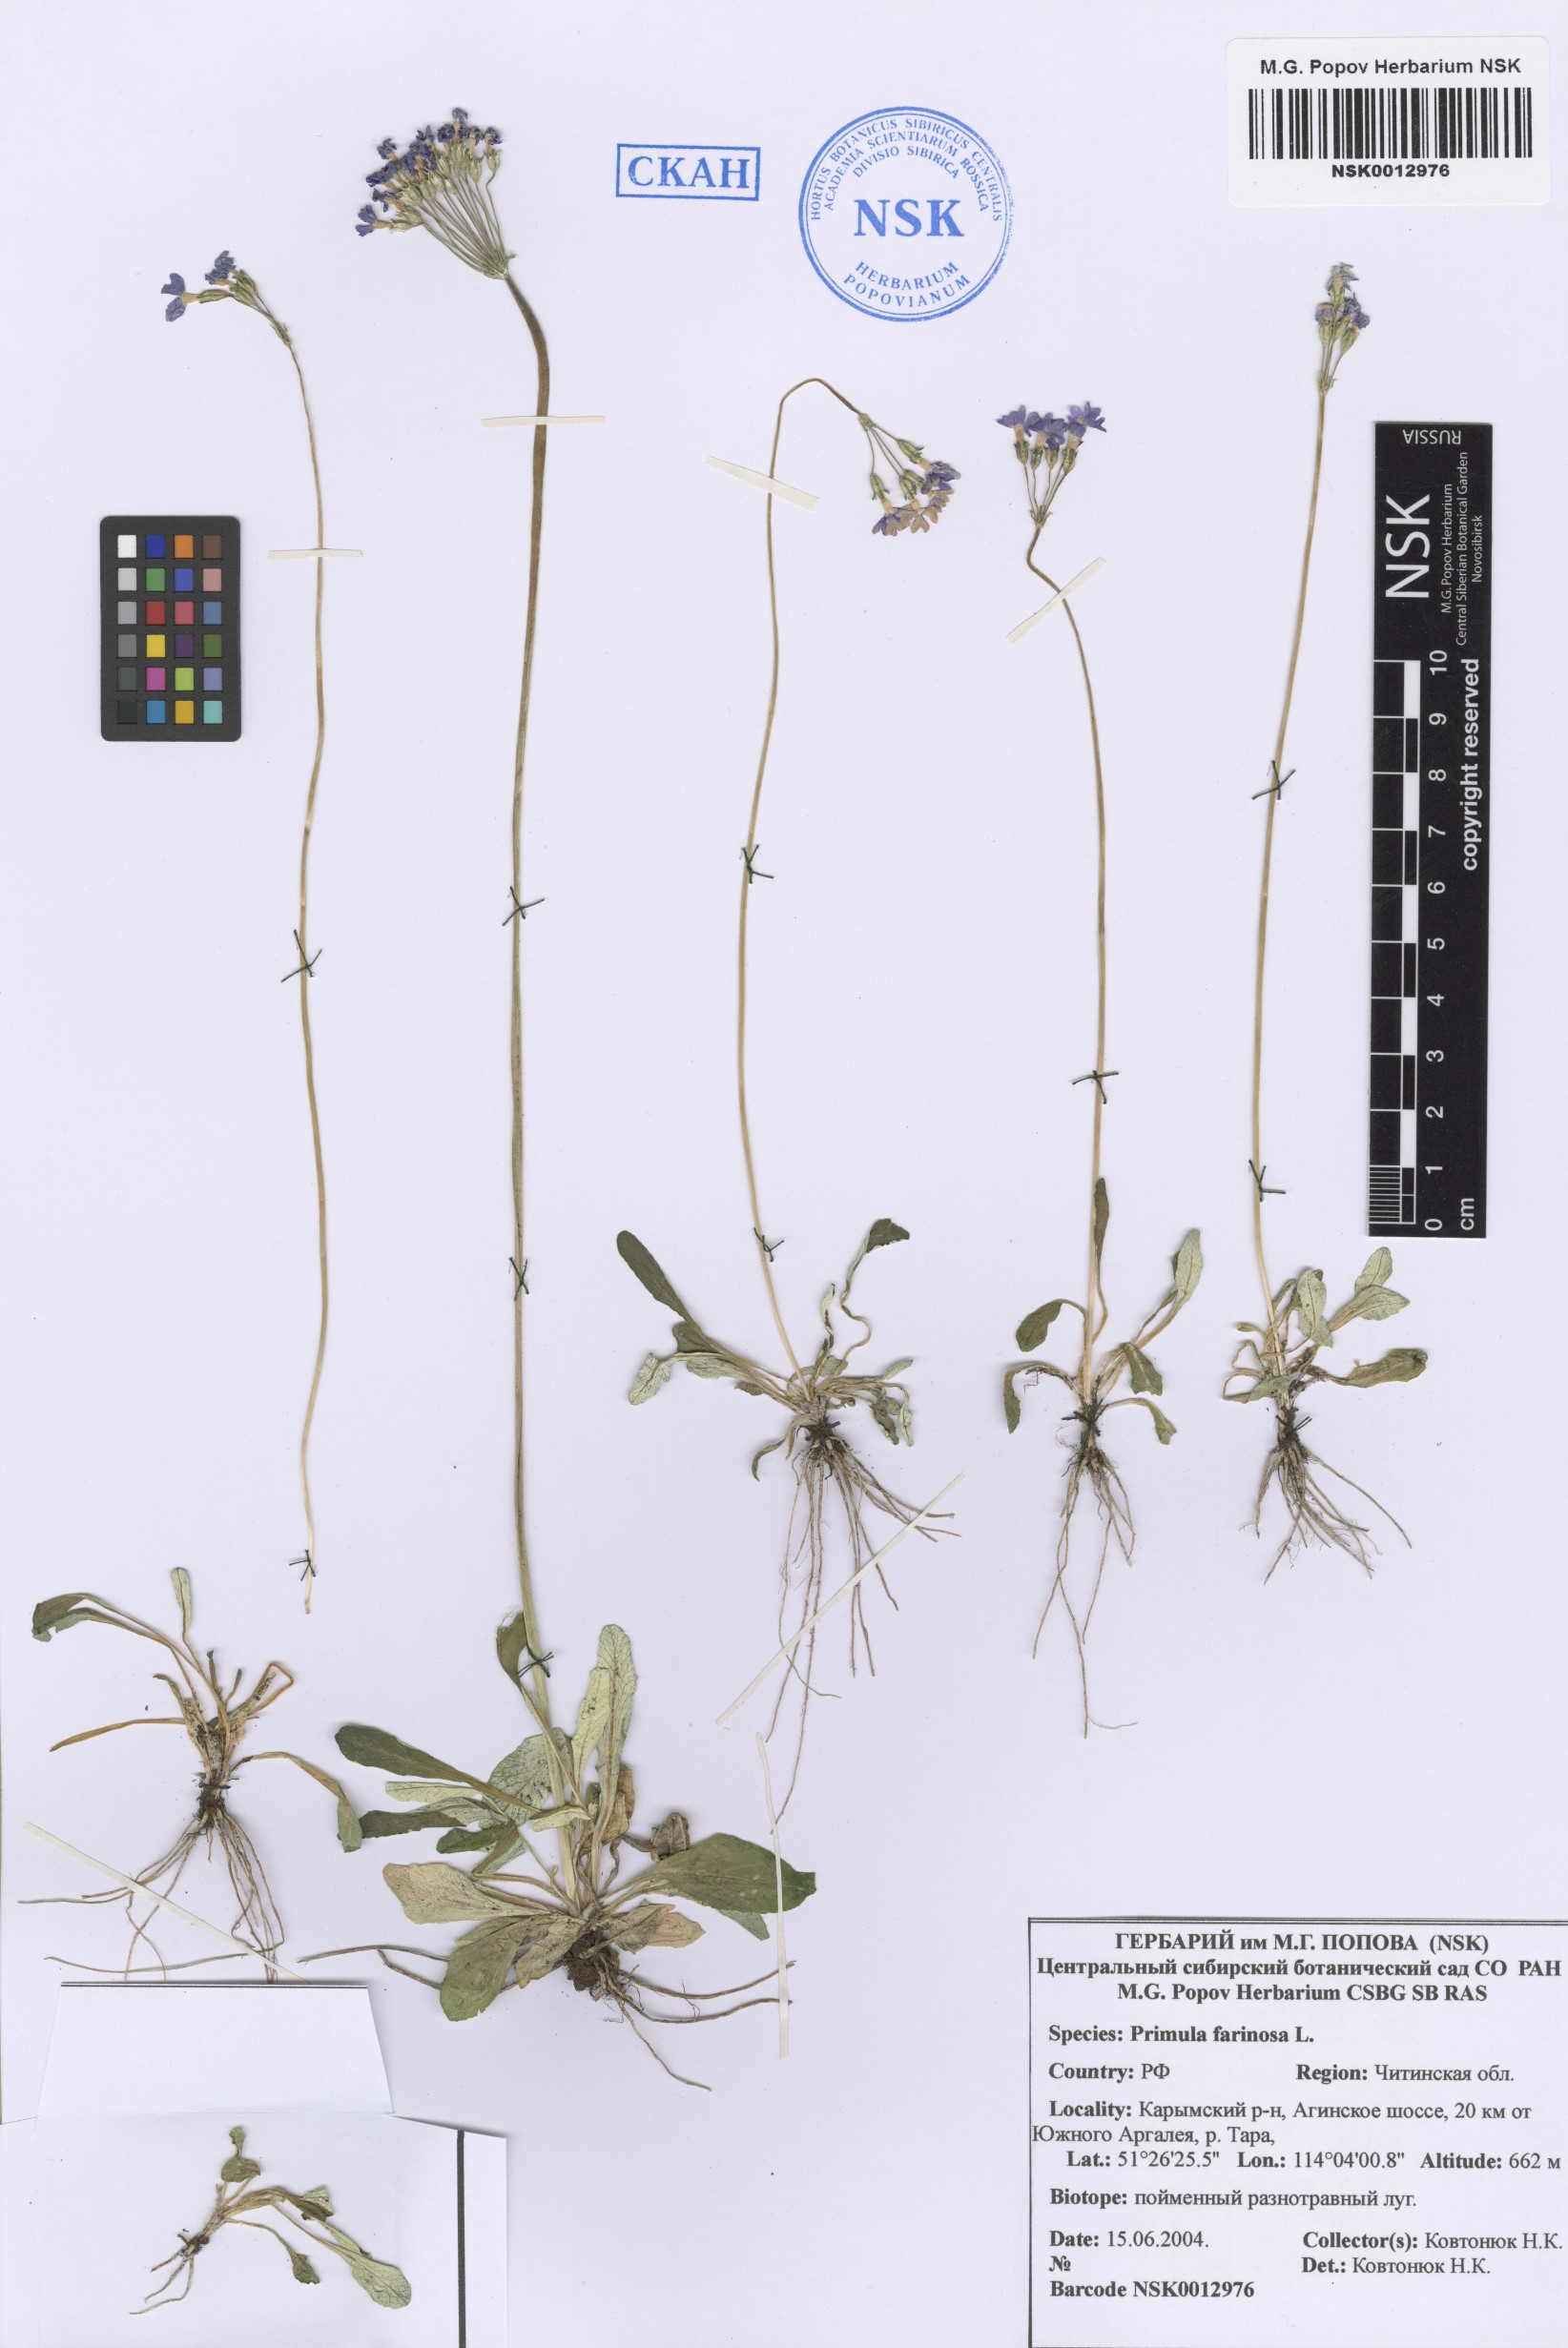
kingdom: Plantae
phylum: Tracheophyta
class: Magnoliopsida
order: Ericales
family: Primulaceae
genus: Primula
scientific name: Primula farinosa
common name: Bird's-eye primrose
